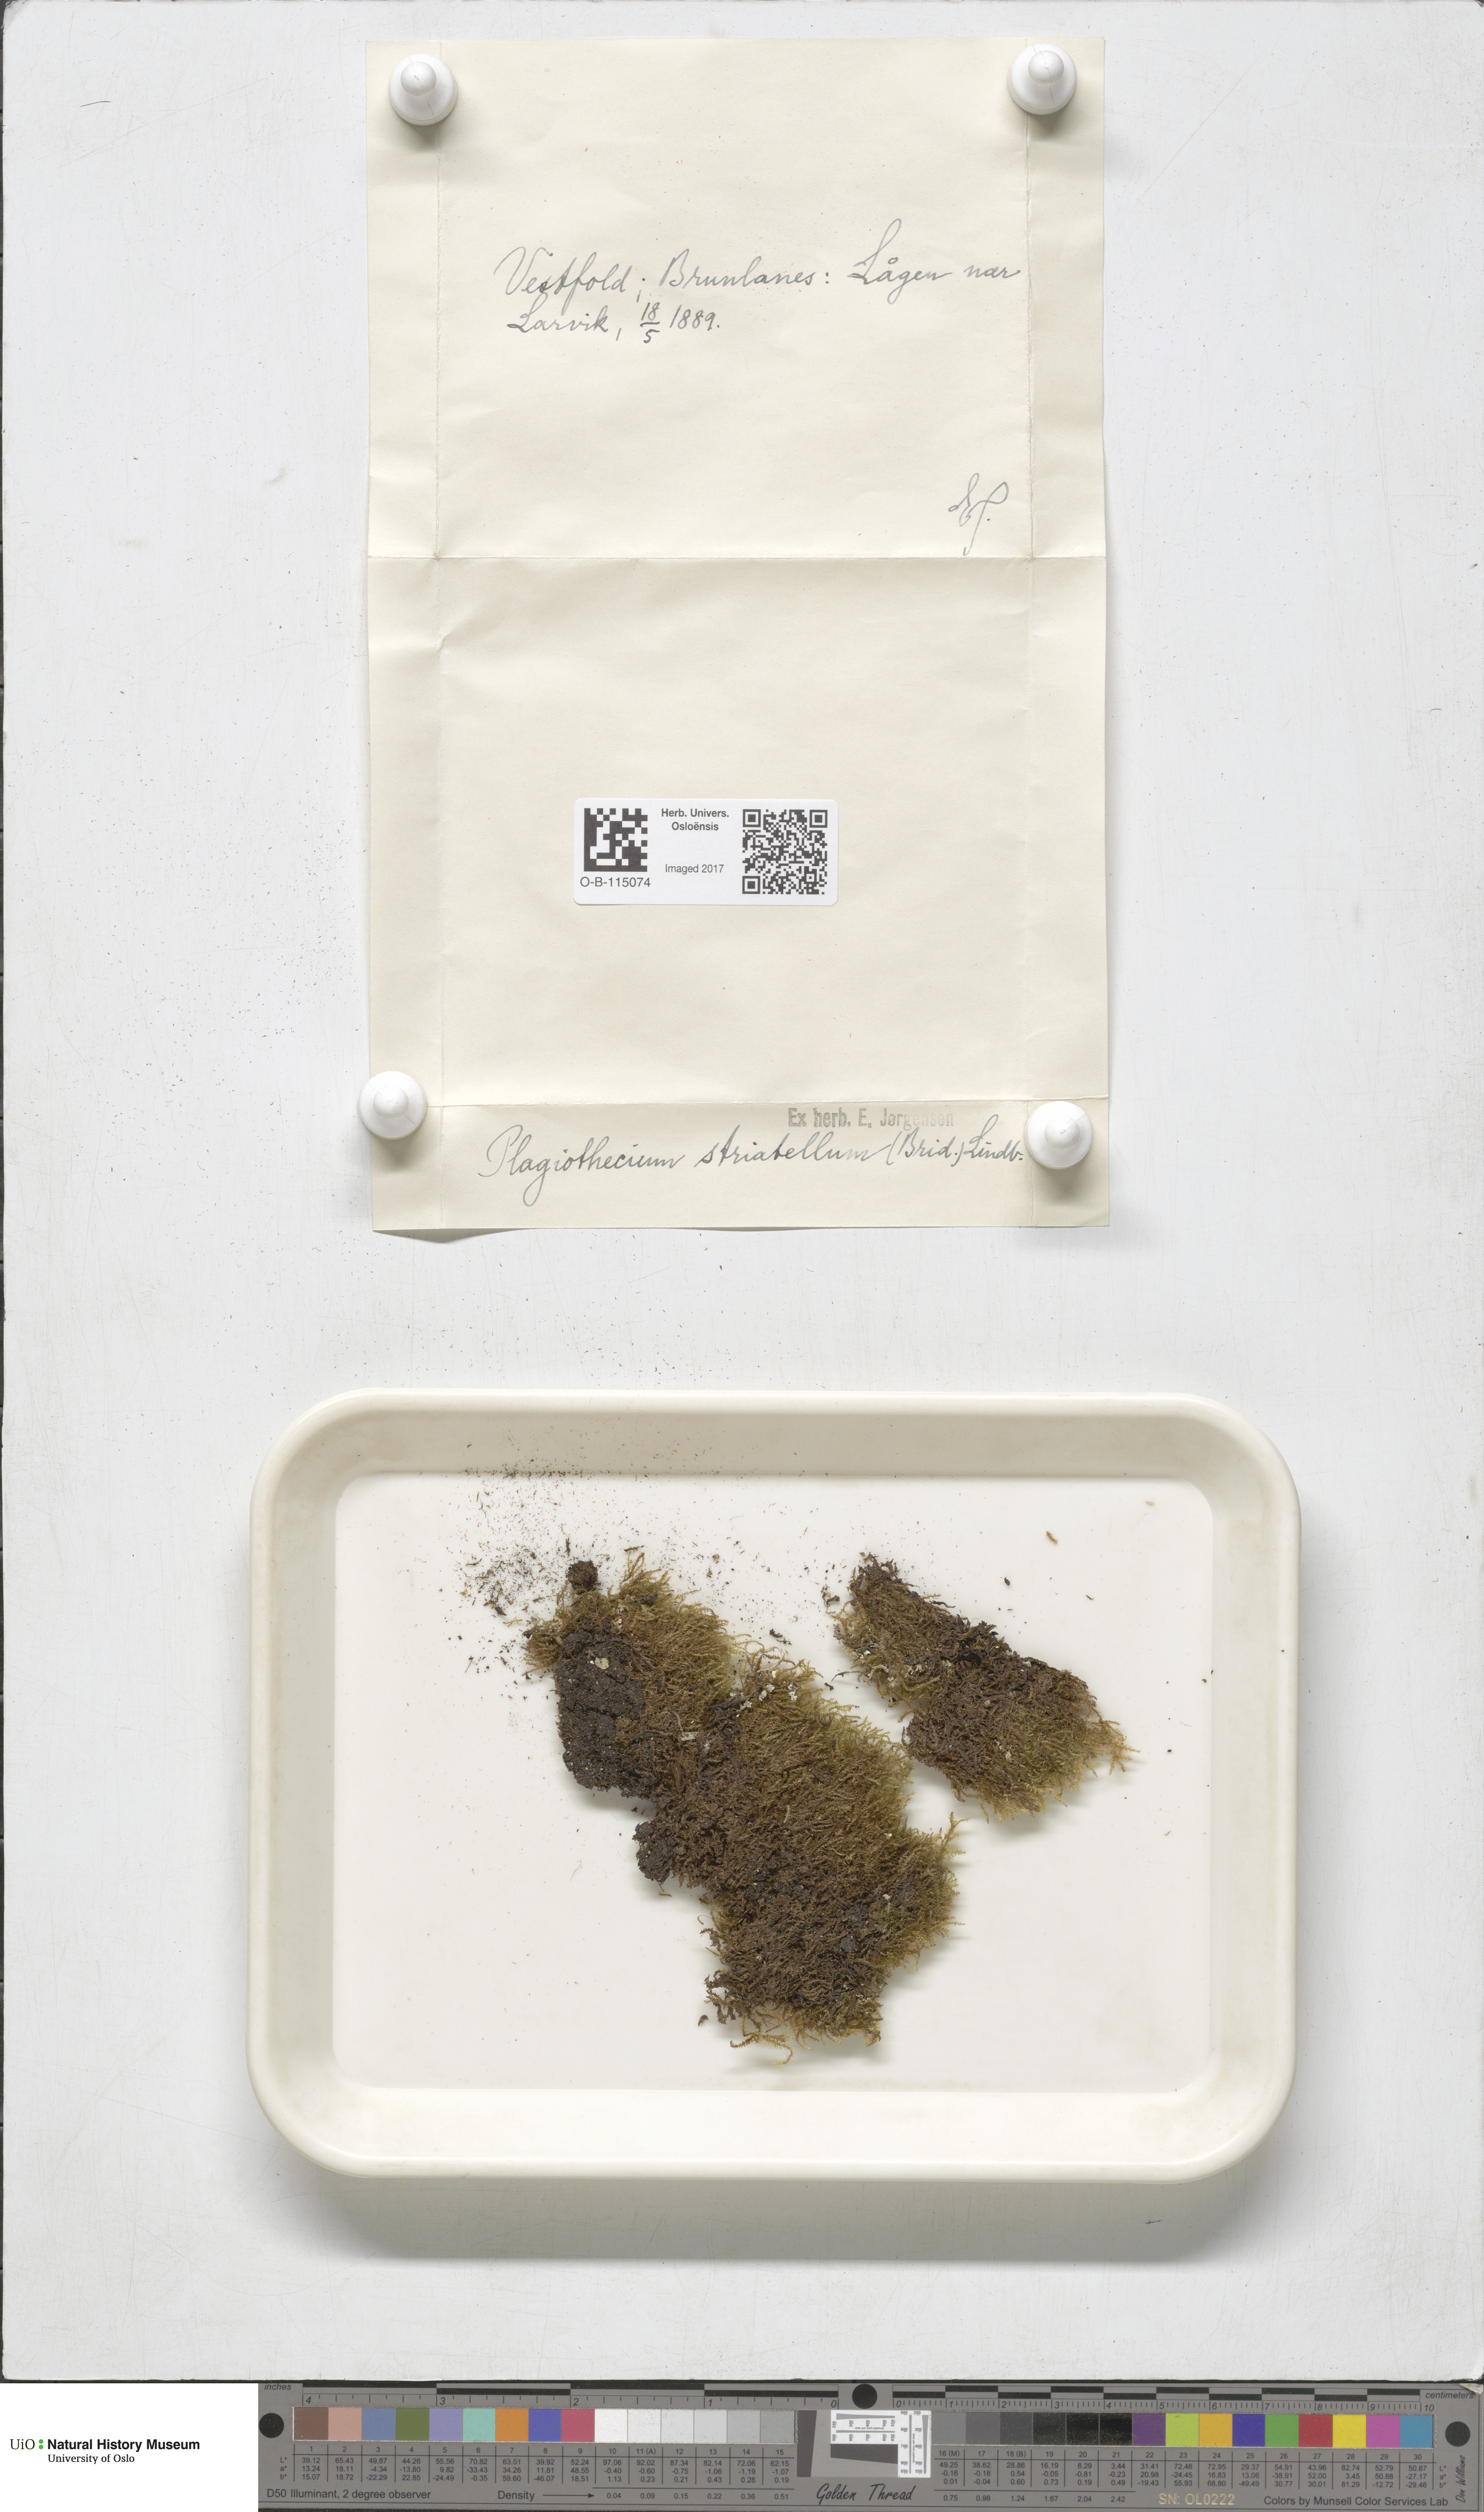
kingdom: Plantae
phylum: Bryophyta
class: Bryopsida
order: Hypnales
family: Plagiotheciaceae
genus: Herzogiella
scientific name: Herzogiella striatella
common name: Muhlenbeck's feather-moss
